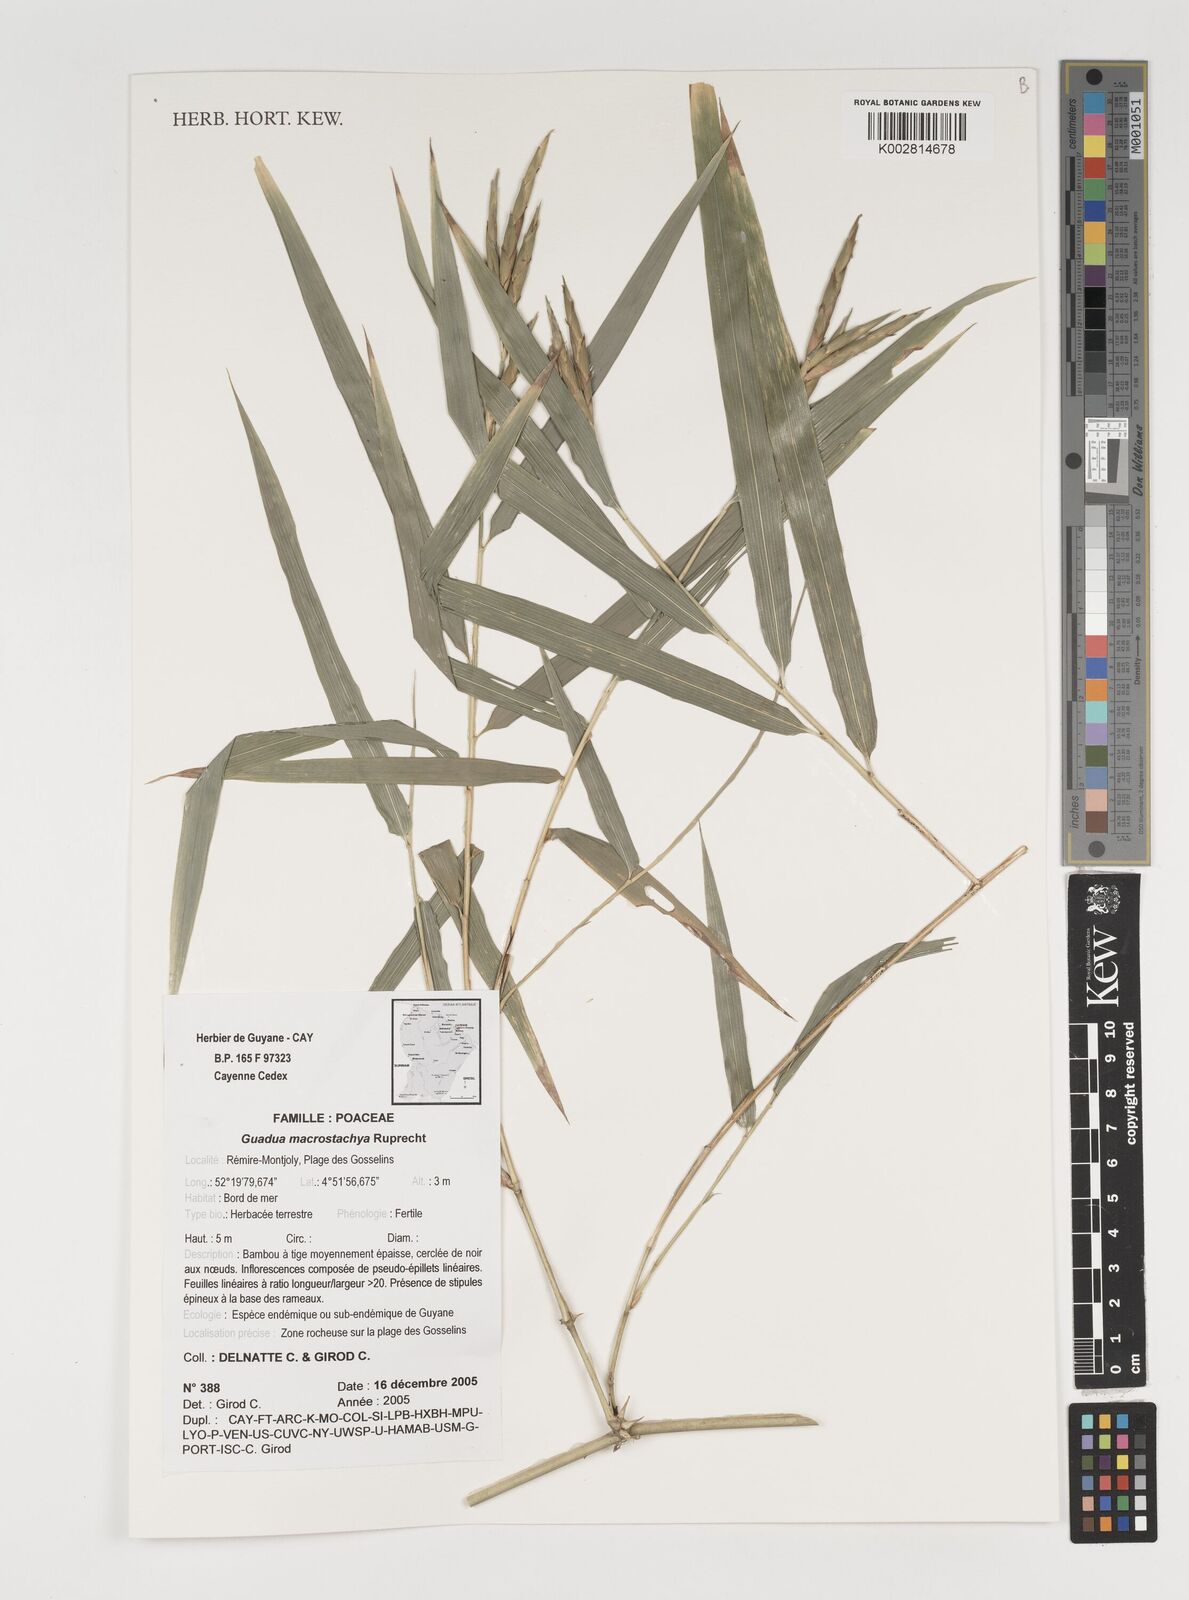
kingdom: Plantae
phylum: Tracheophyta
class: Liliopsida
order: Poales
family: Poaceae
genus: Guadua
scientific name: Guadua macrostachya
